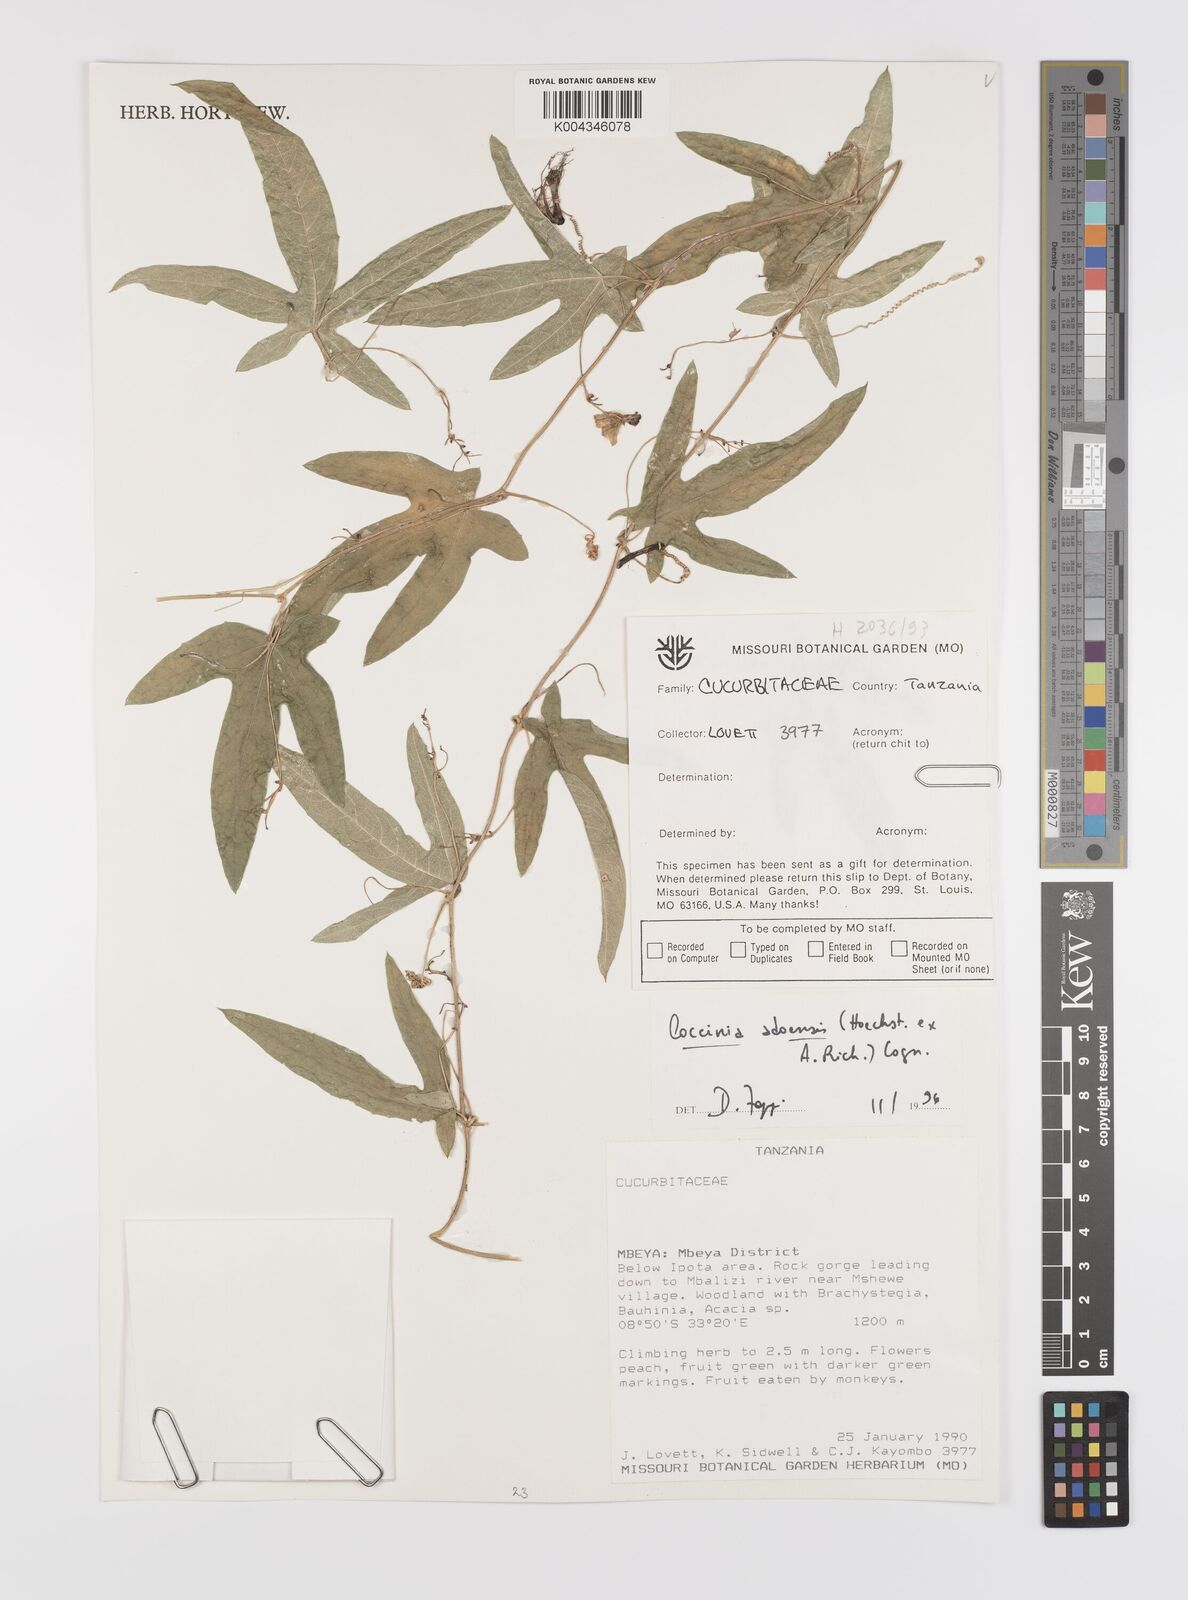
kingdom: Plantae
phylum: Tracheophyta
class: Magnoliopsida
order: Cucurbitales
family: Cucurbitaceae
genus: Coccinia
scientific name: Coccinia adoensis
